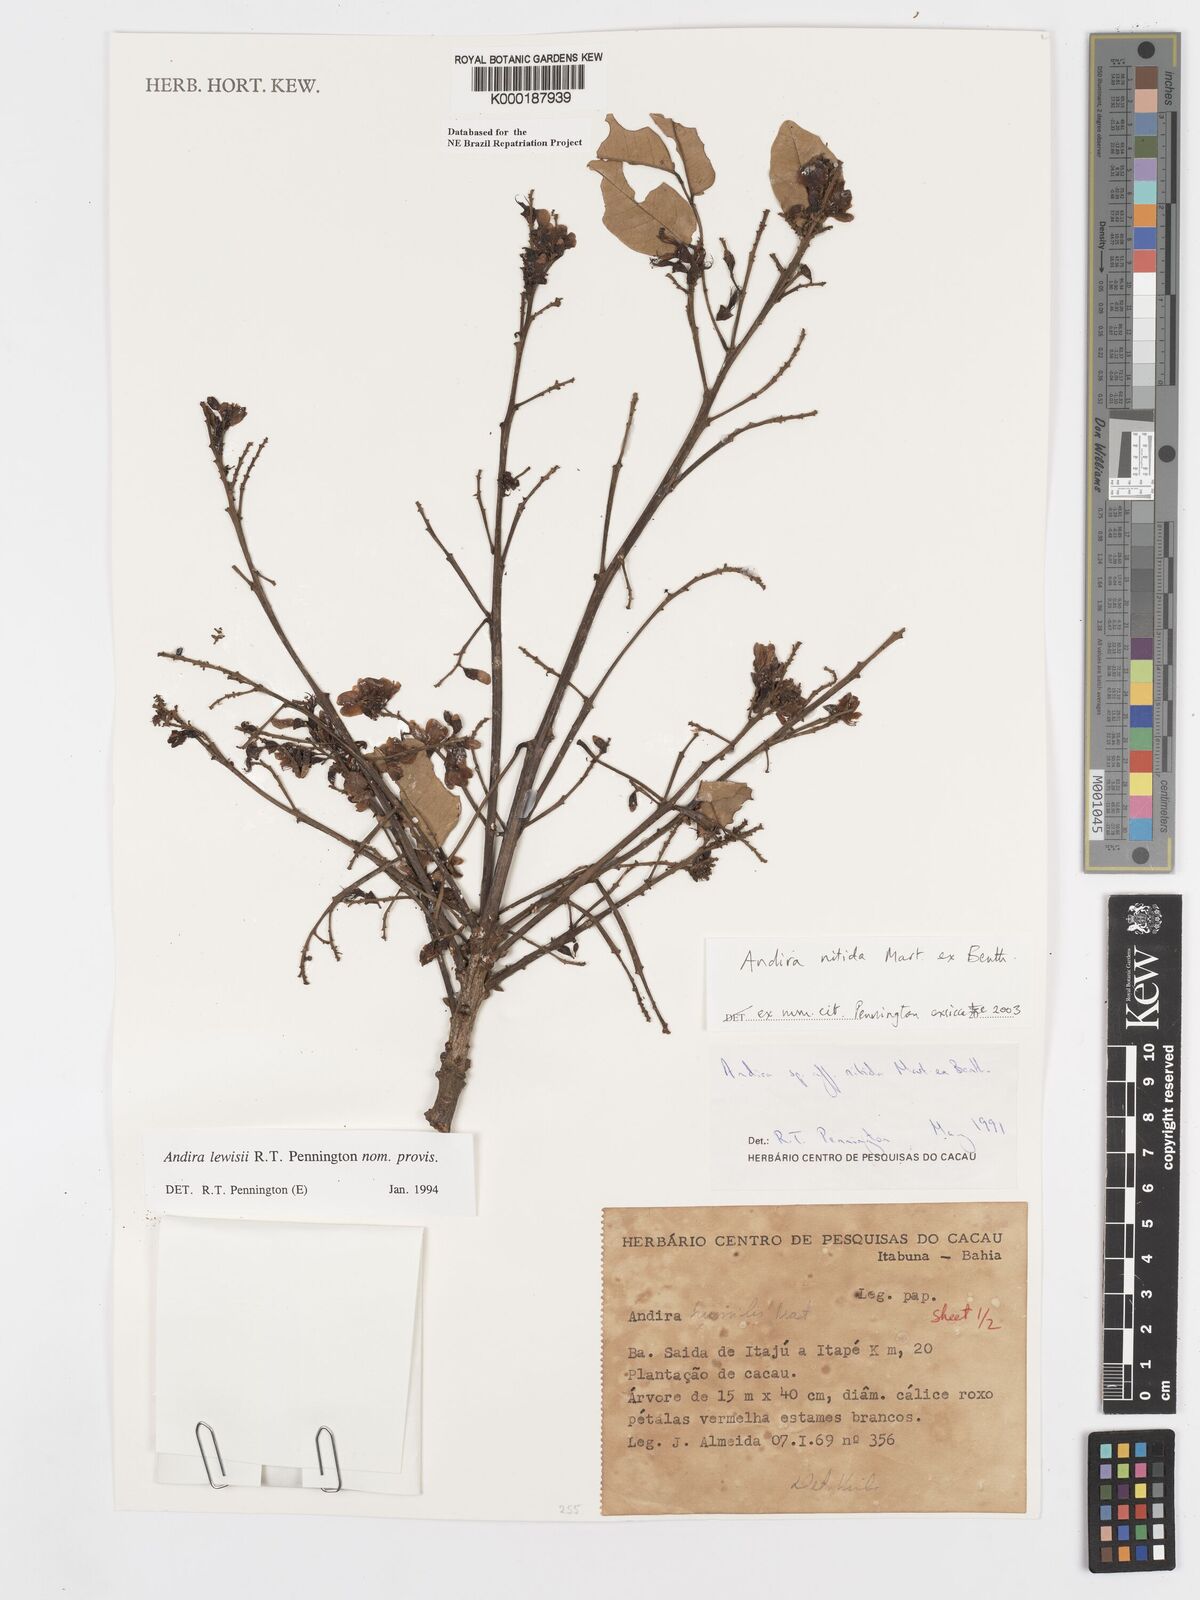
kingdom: Plantae
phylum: Tracheophyta
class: Magnoliopsida
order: Fabales
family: Fabaceae
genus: Andira
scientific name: Andira nitida
